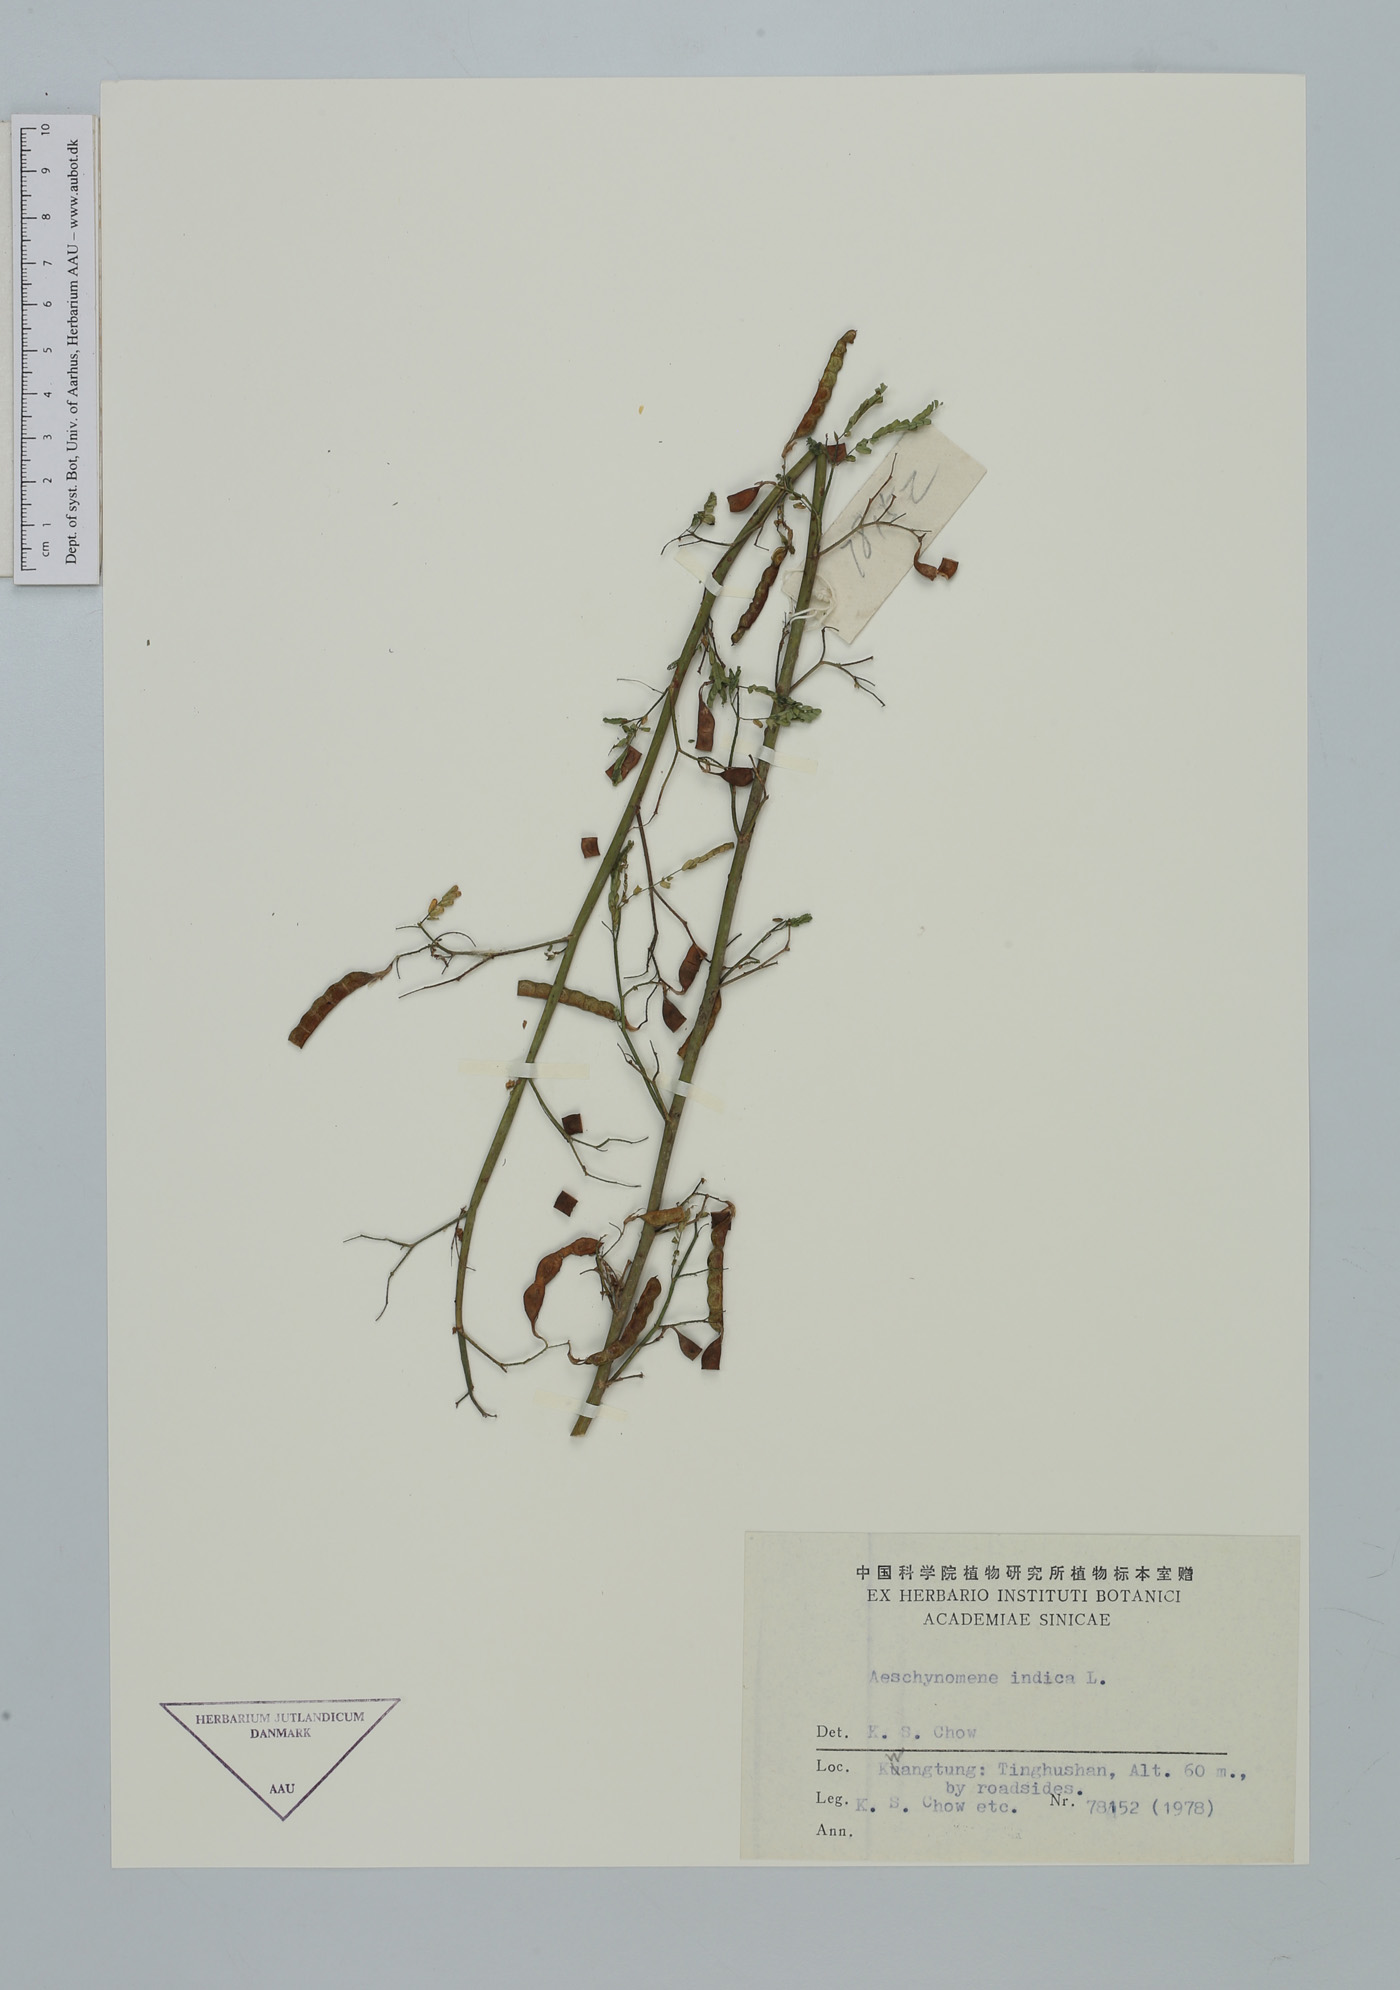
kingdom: Plantae
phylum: Tracheophyta
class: Magnoliopsida
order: Fabales
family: Fabaceae
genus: Aeschynomene
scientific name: Aeschynomene indica
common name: Indian jointvetch
